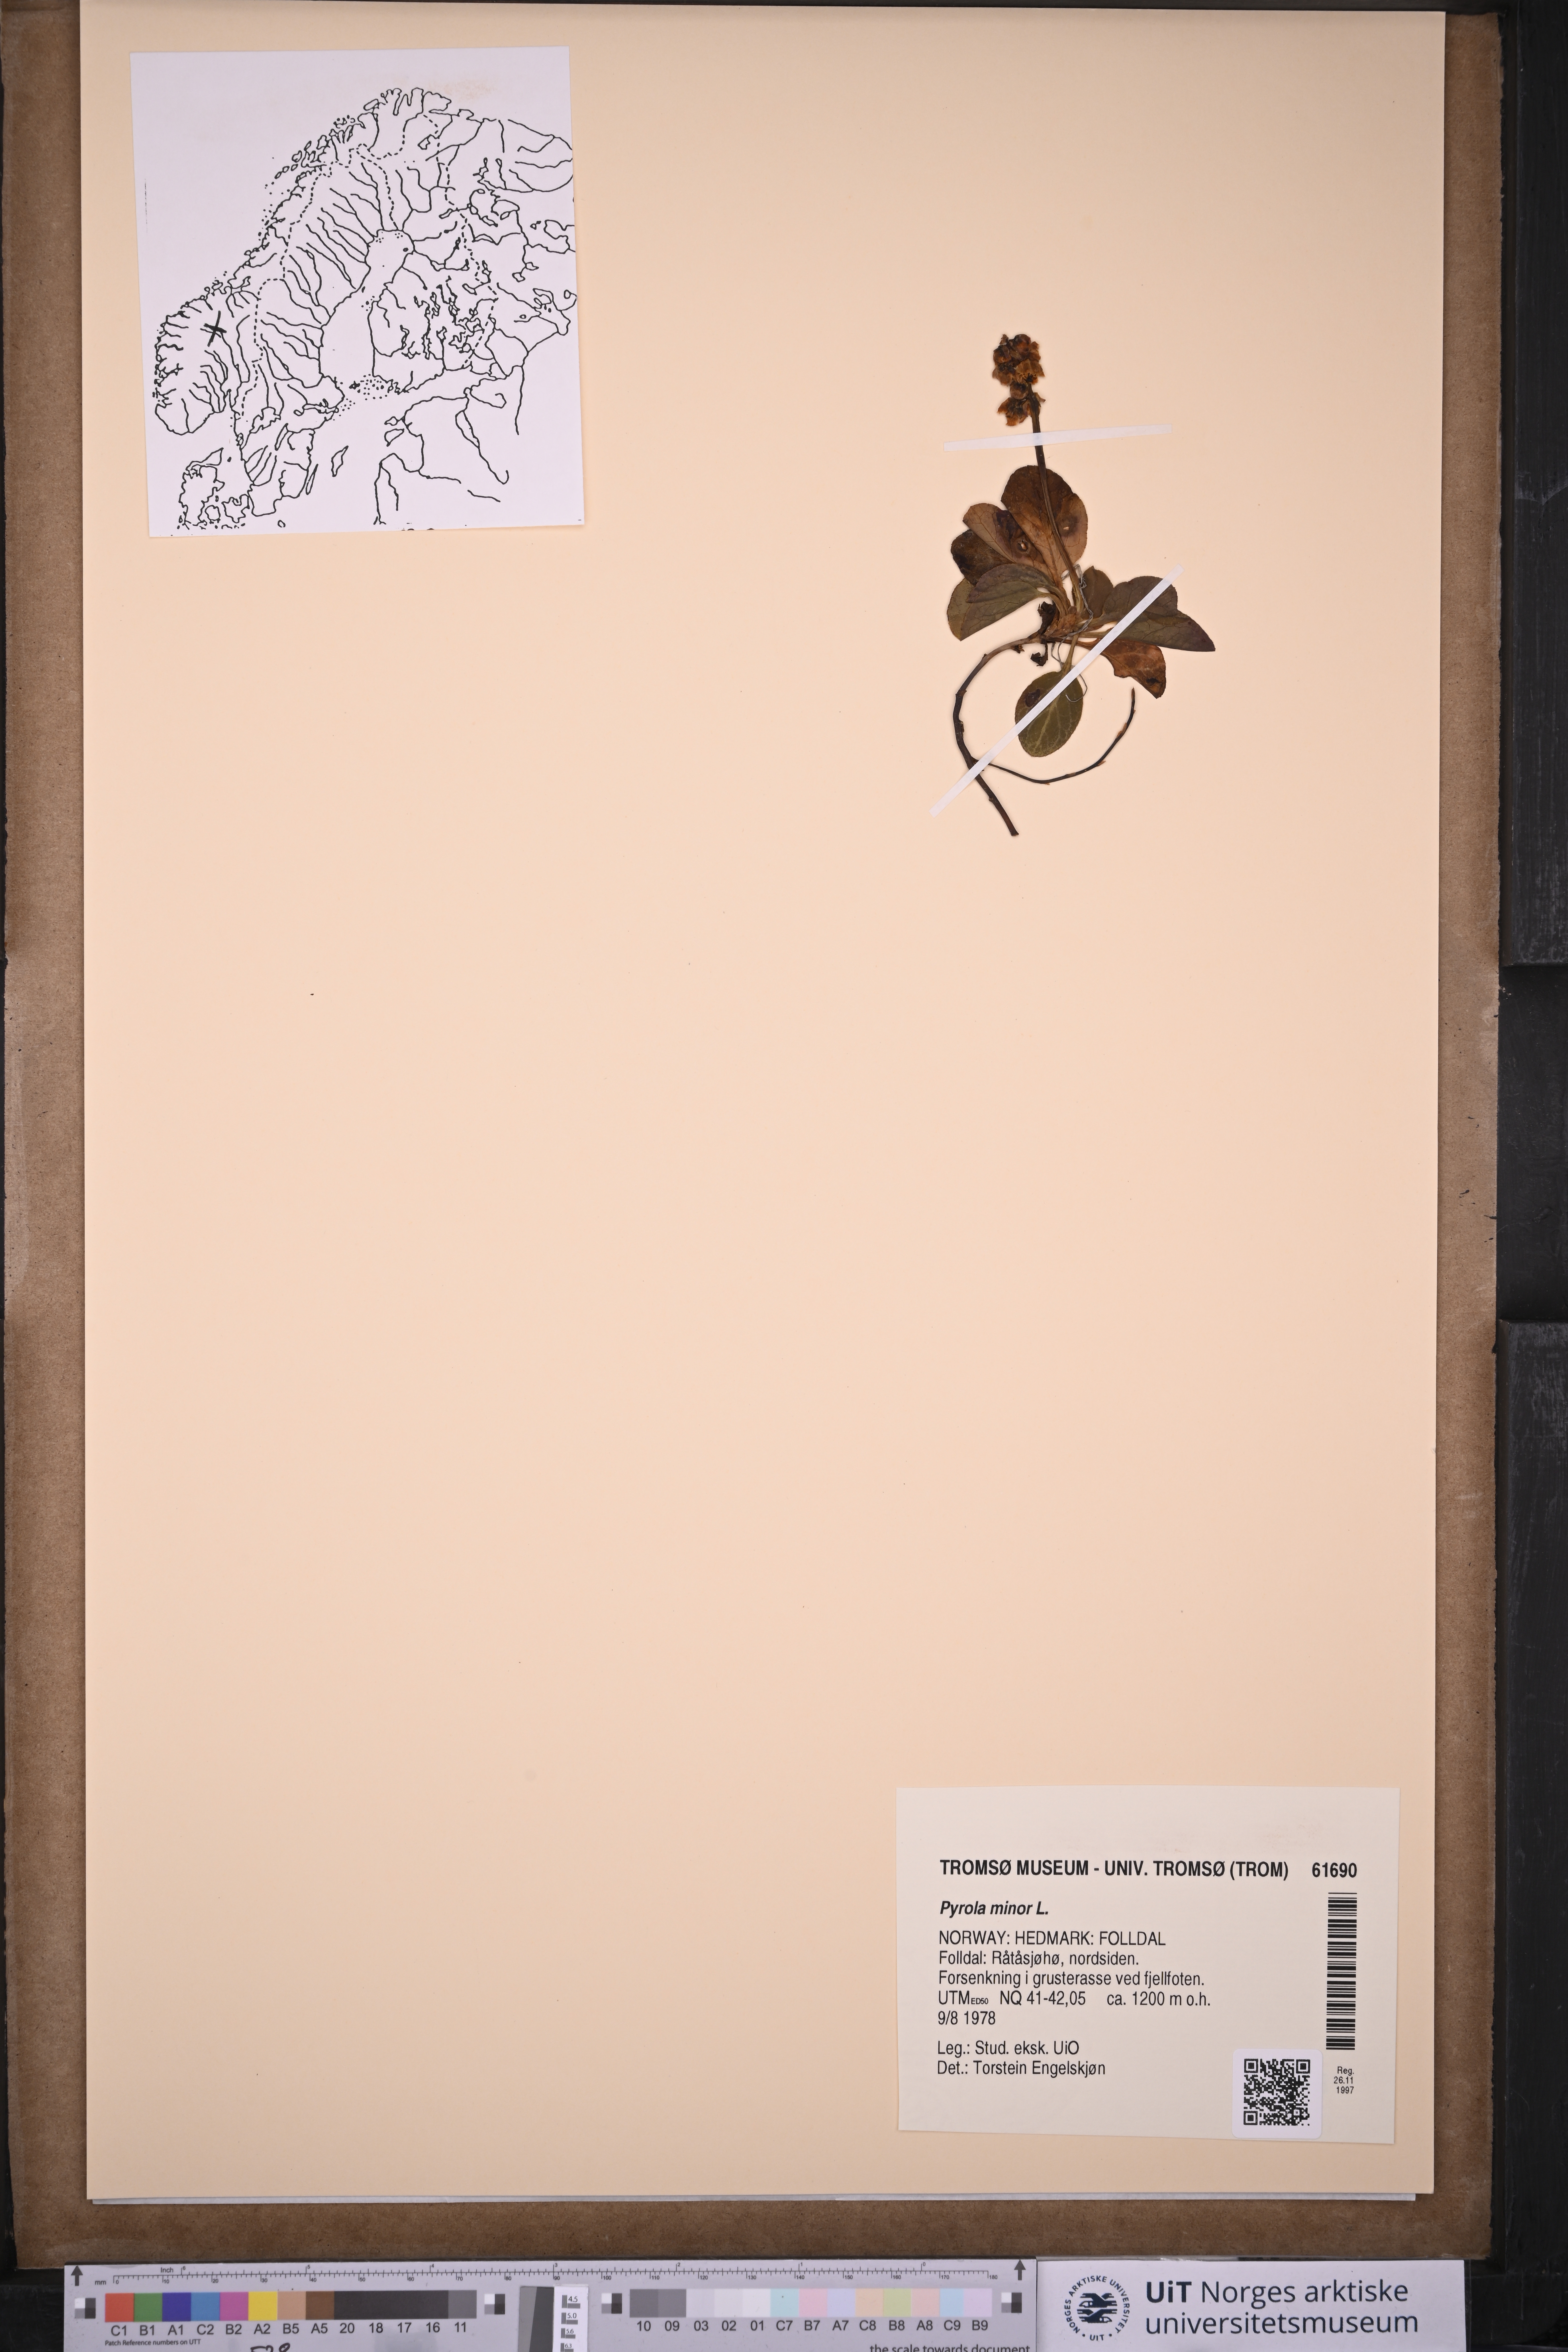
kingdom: Plantae
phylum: Tracheophyta
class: Magnoliopsida
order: Ericales
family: Ericaceae
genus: Pyrola
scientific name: Pyrola minor
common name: Common wintergreen
